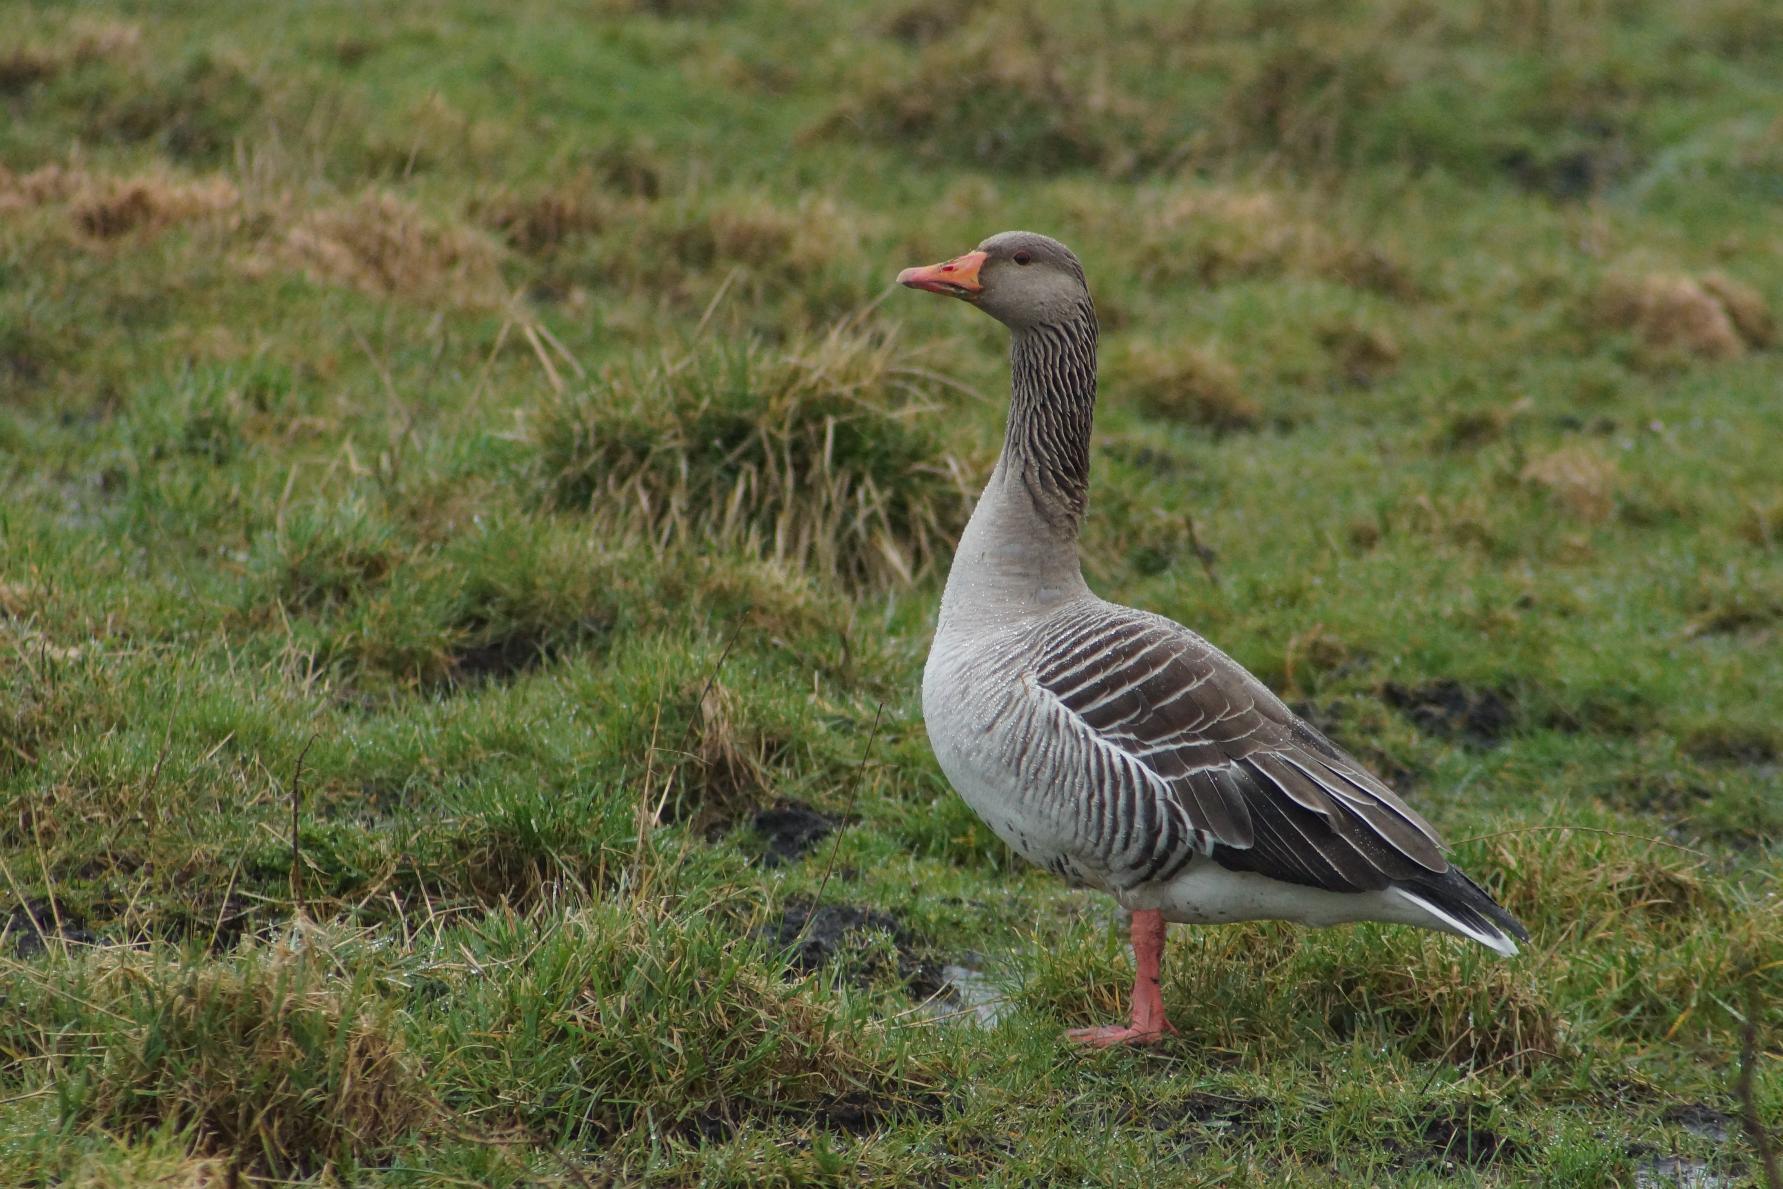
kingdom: Animalia
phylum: Chordata
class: Aves
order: Anseriformes
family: Anatidae
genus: Anser
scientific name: Anser anser
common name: Grågås
